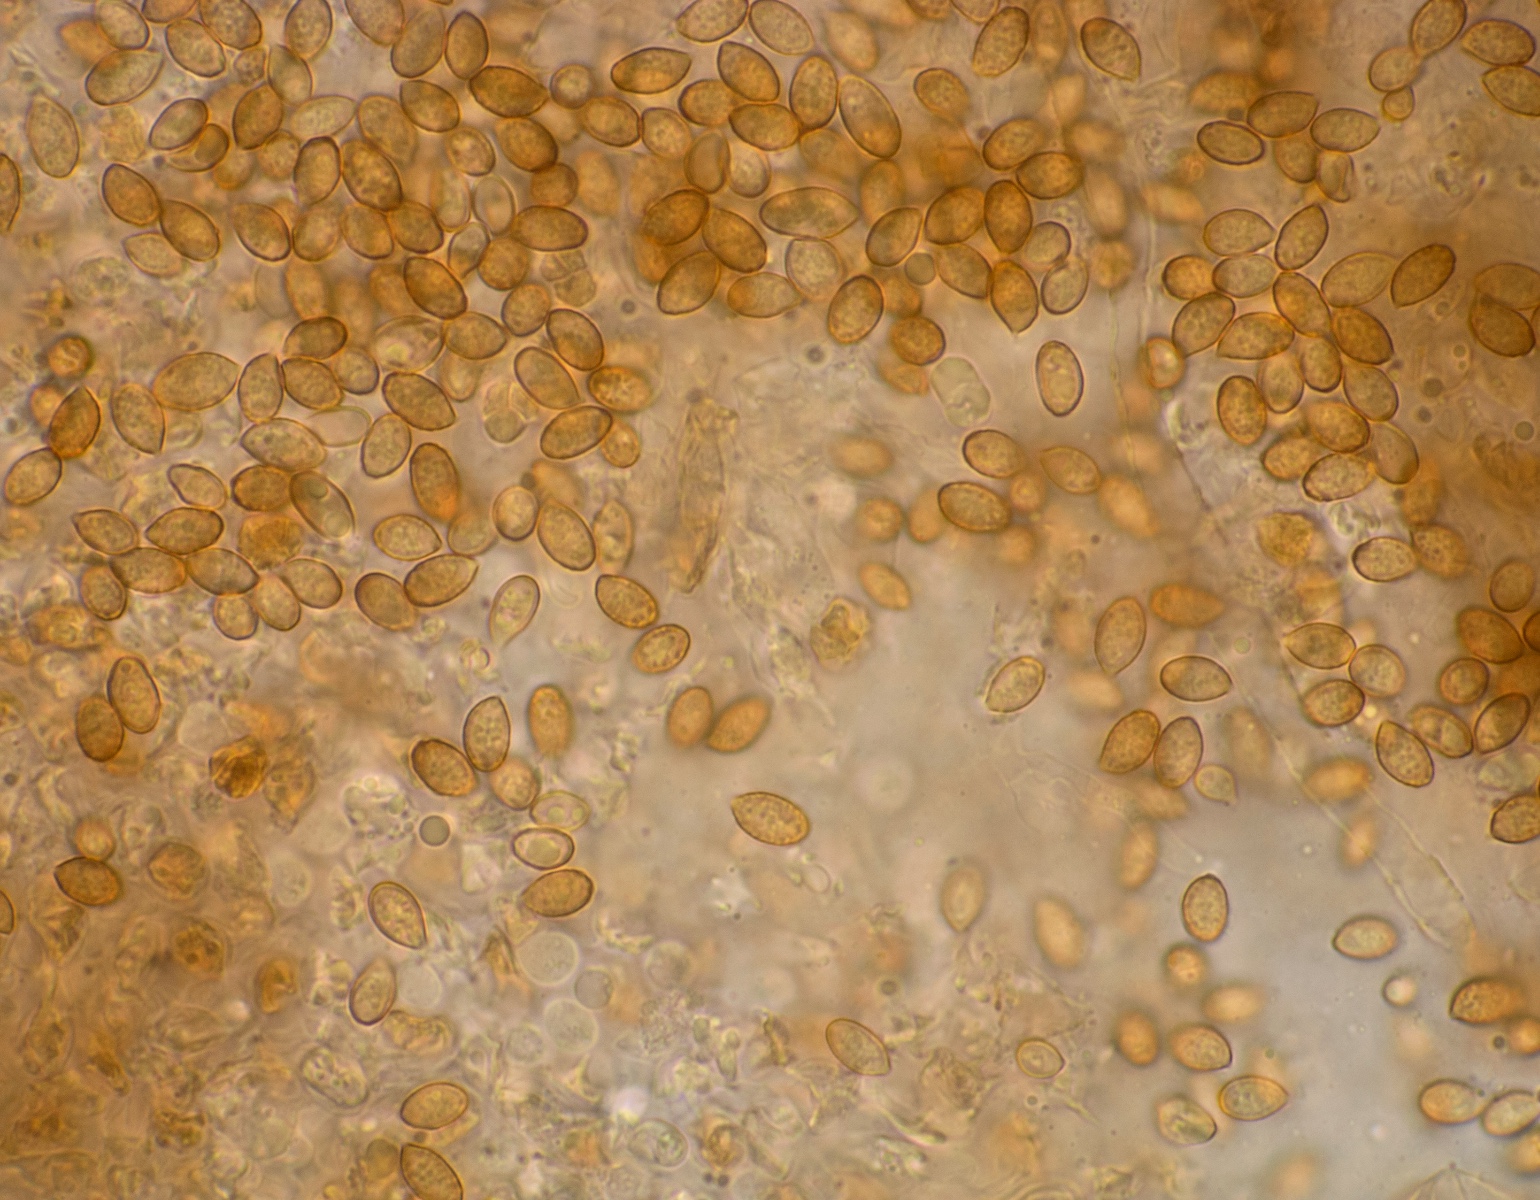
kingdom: Fungi
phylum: Basidiomycota
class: Agaricomycetes
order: Agaricales
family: Cortinariaceae
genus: Cortinarius
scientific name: Cortinarius castaneopallidus
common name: bronzetrævlet slørhat
